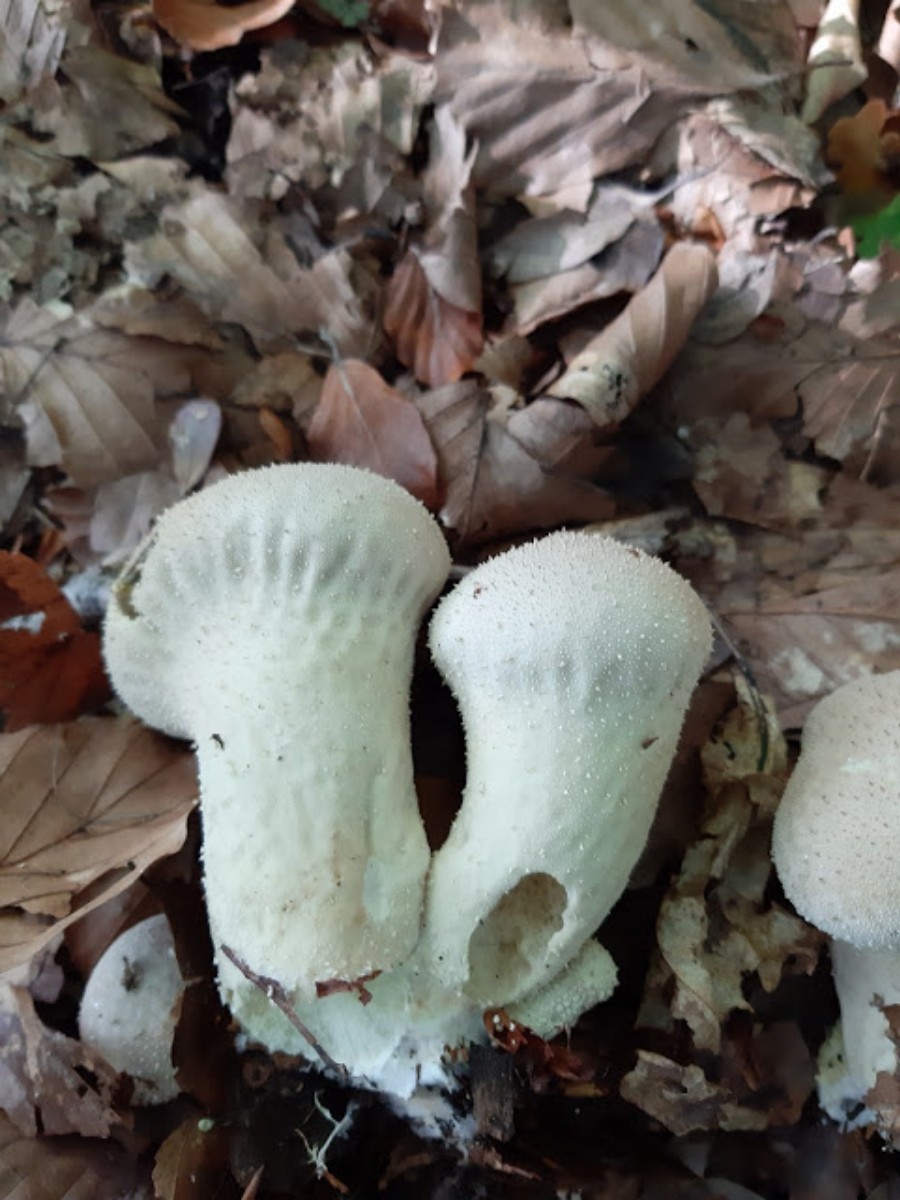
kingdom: Fungi
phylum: Basidiomycota
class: Agaricomycetes
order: Agaricales
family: Lycoperdaceae
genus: Lycoperdon
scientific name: Lycoperdon perlatum
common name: krystal-støvbold
